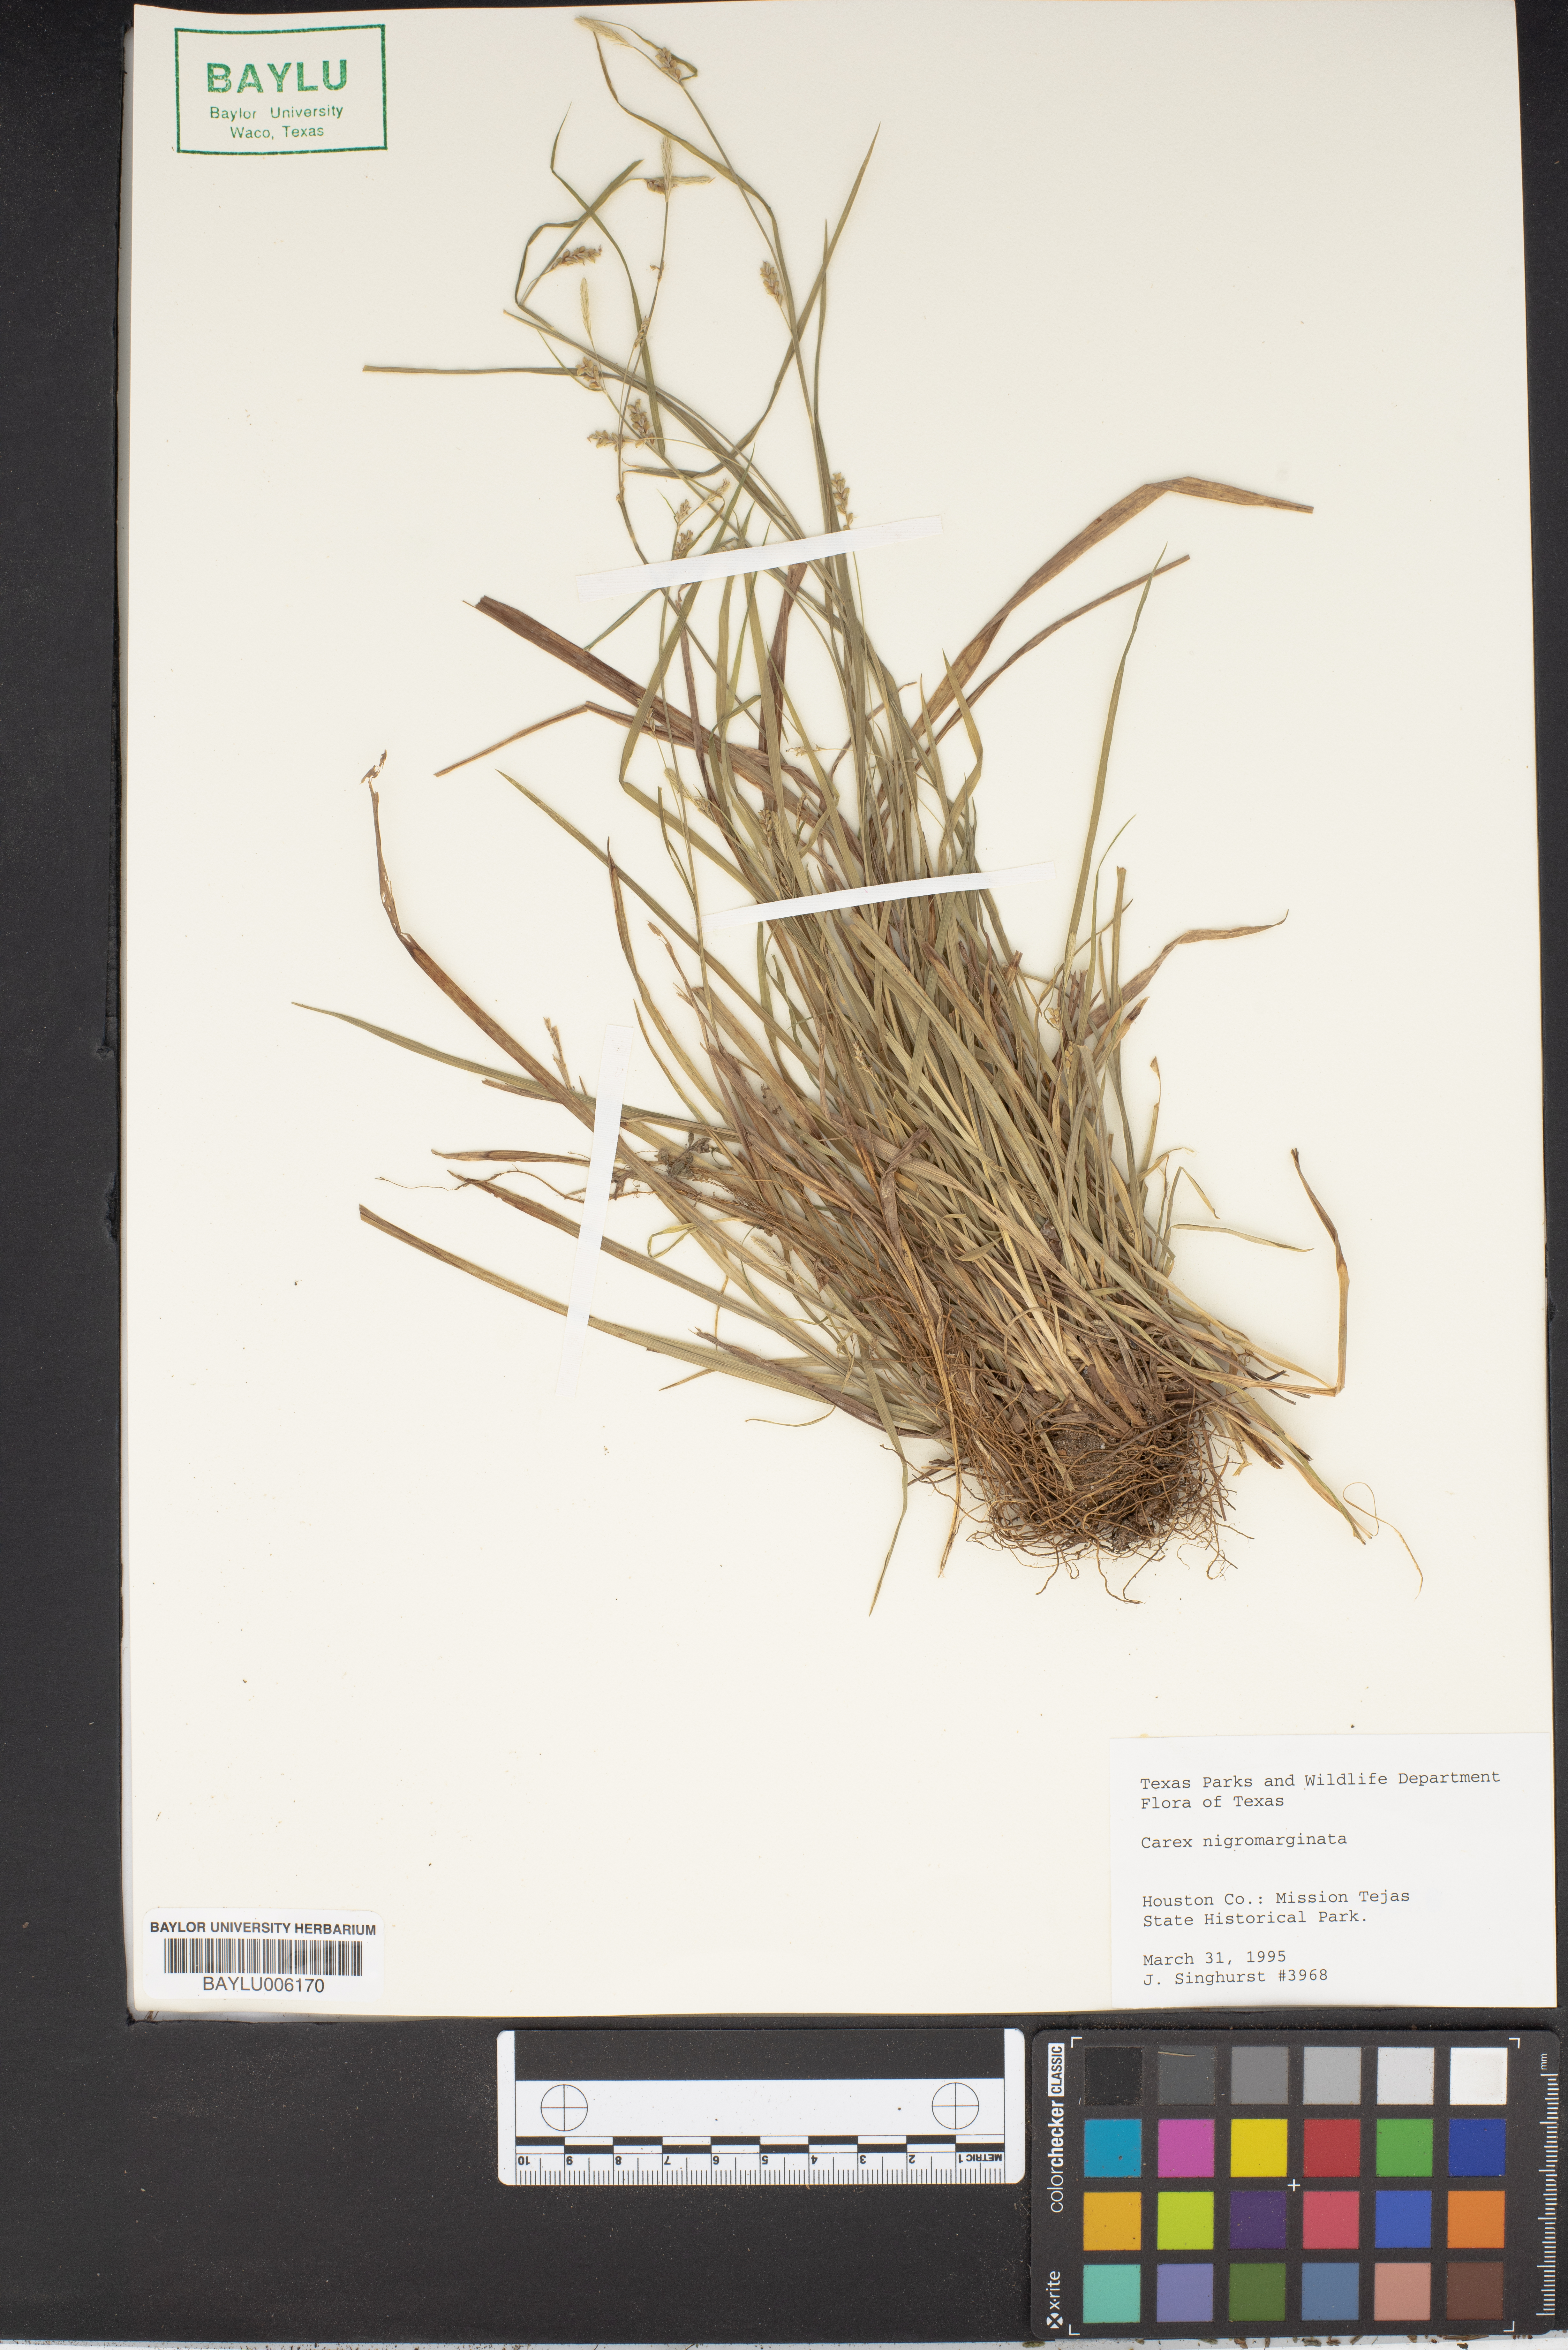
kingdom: Plantae
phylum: Tracheophyta
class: Liliopsida
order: Poales
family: Cyperaceae
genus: Carex
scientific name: Carex nigromarginata
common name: Black-edged sedge
